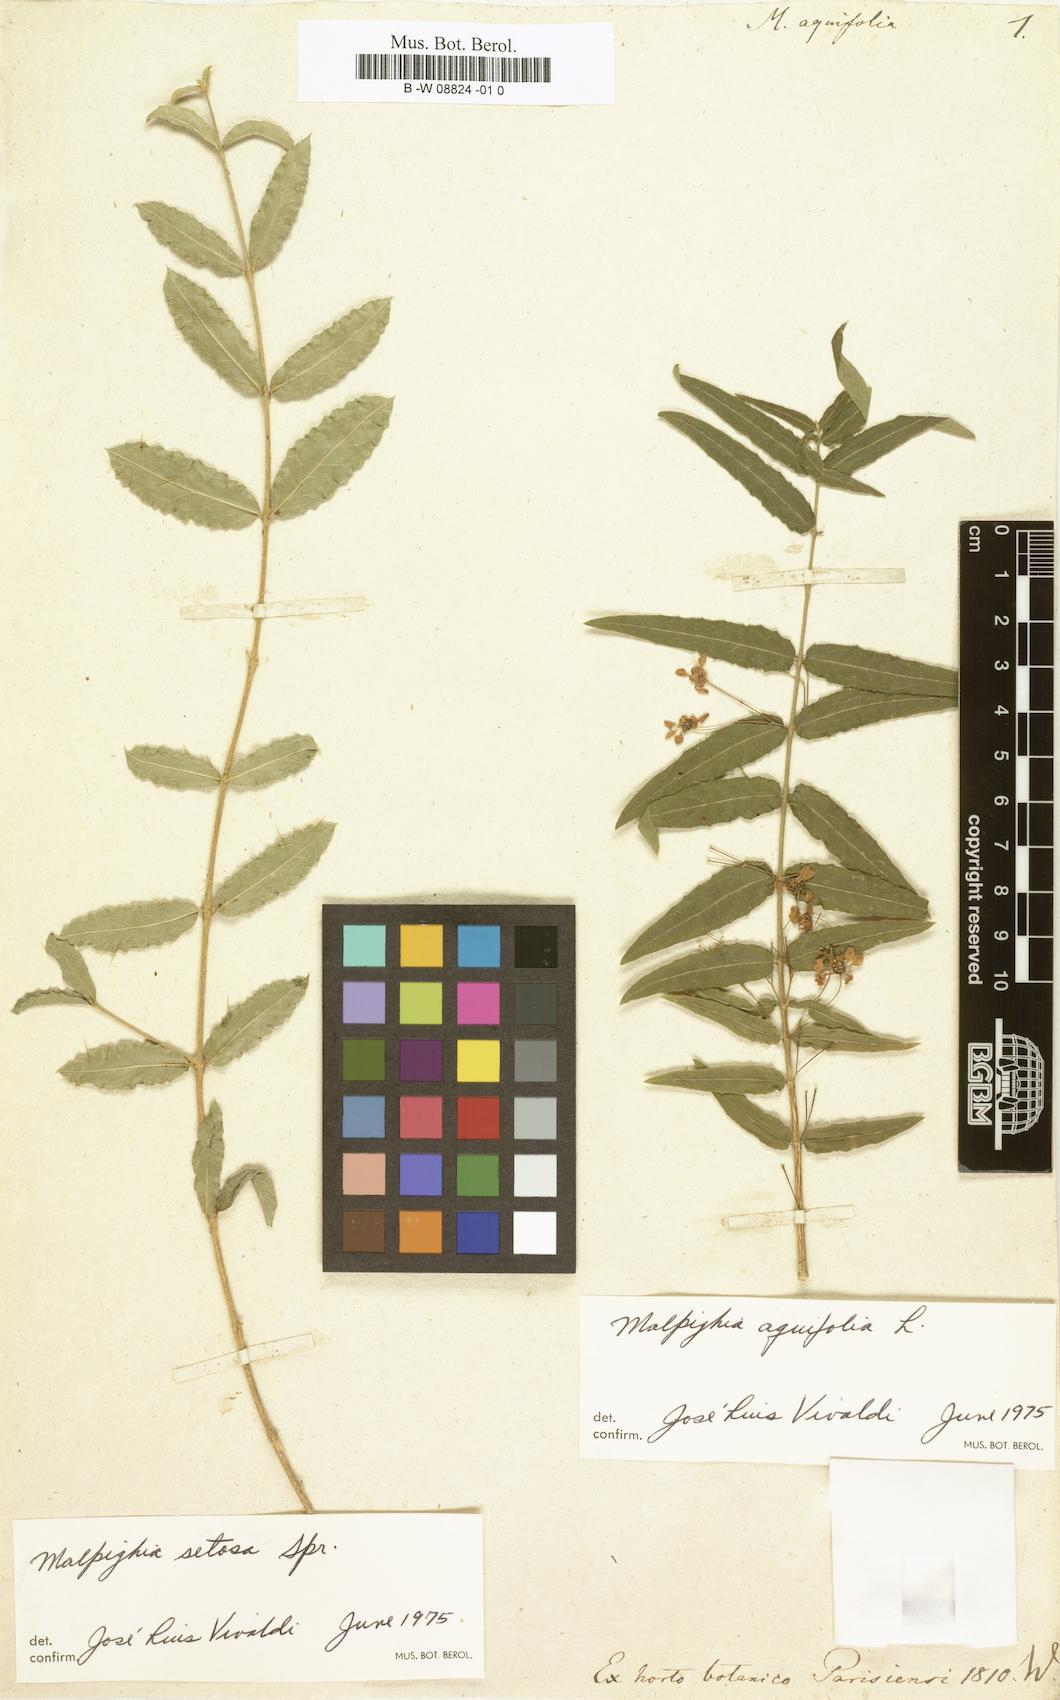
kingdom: Plantae
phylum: Tracheophyta
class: Magnoliopsida
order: Malpighiales
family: Malpighiaceae
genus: Malpighia
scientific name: Malpighia aquifolia
